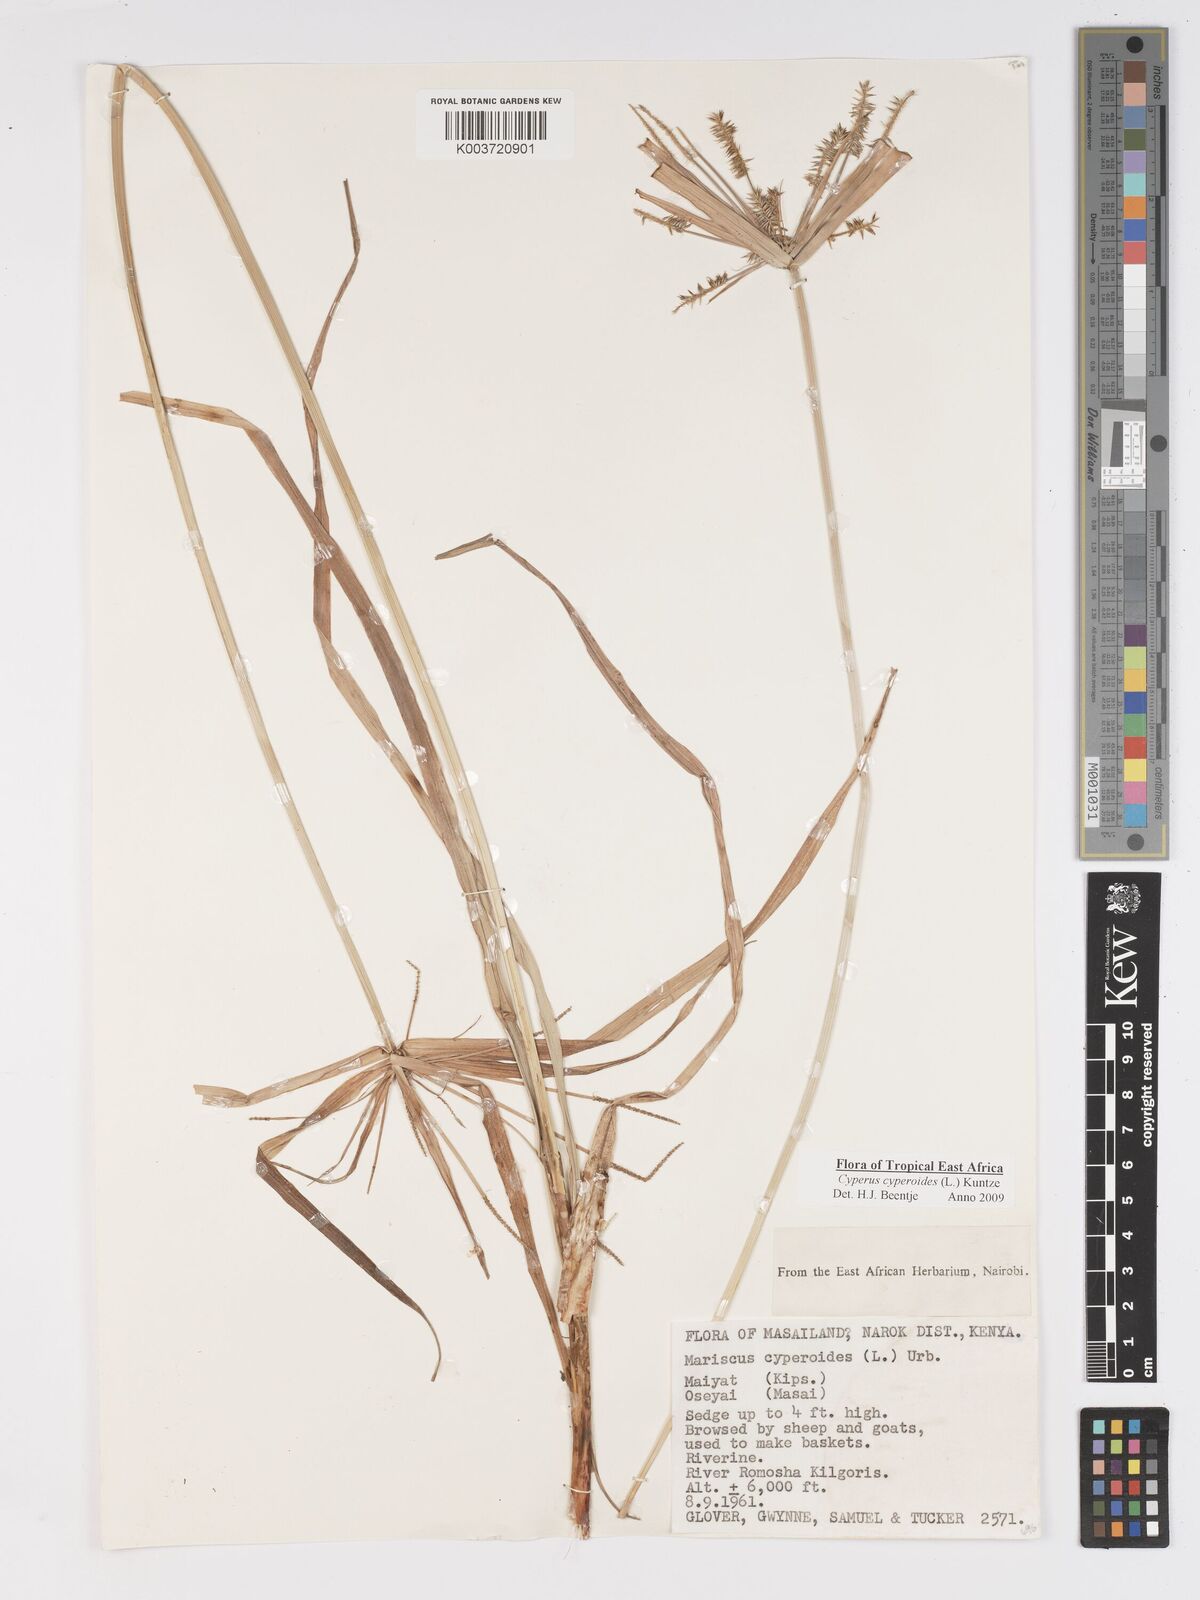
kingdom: Plantae
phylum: Tracheophyta
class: Liliopsida
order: Poales
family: Cyperaceae
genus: Cyperus
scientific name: Cyperus cyperoides
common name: Pacific island flat sedge
